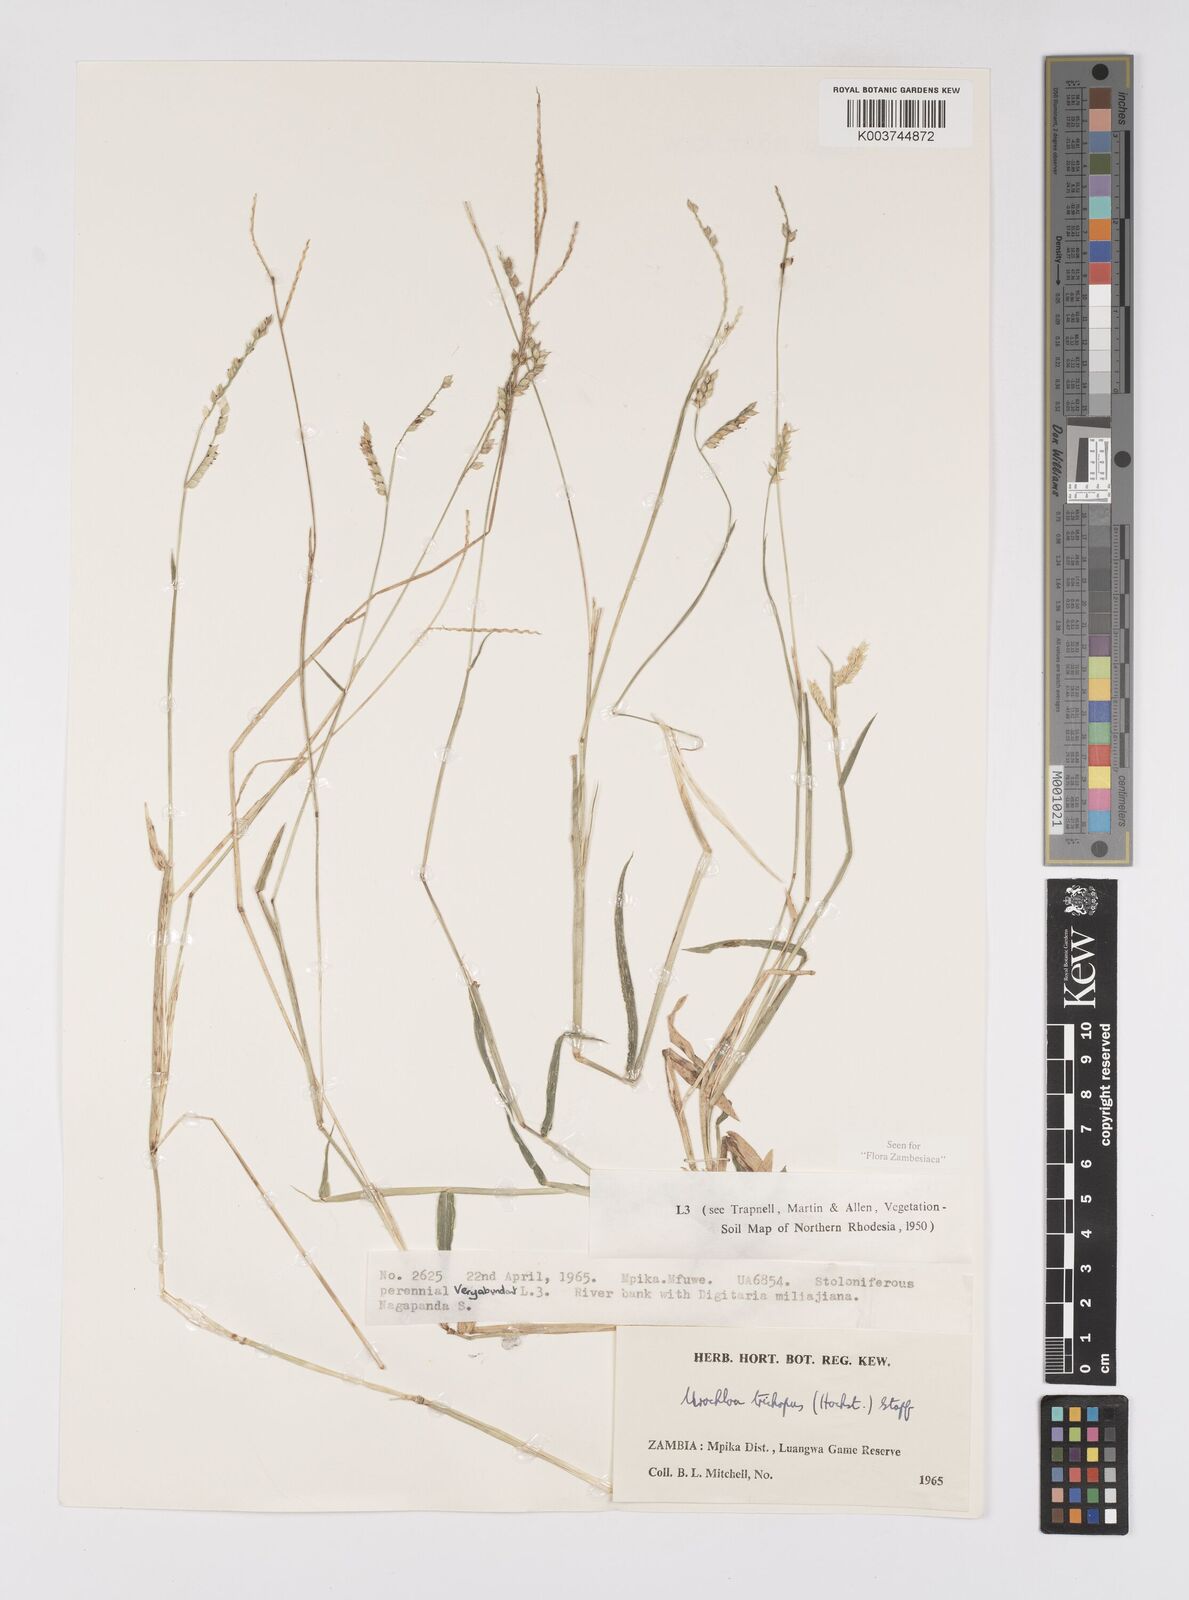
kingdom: Plantae
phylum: Tracheophyta
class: Liliopsida
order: Poales
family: Poaceae
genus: Urochloa
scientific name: Urochloa trichopus
